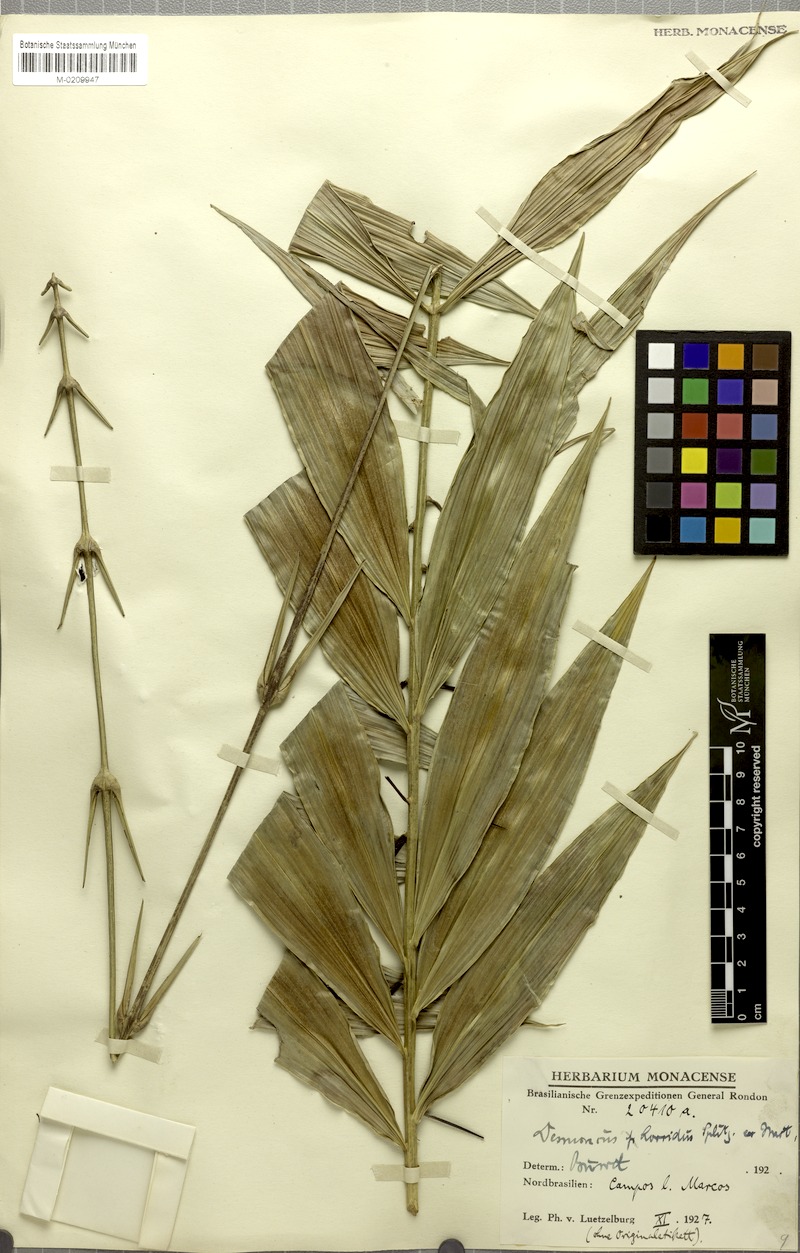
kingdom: Plantae
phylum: Tracheophyta
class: Liliopsida
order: Arecales
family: Arecaceae
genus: Desmoncus
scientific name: Desmoncus orthacanthos
